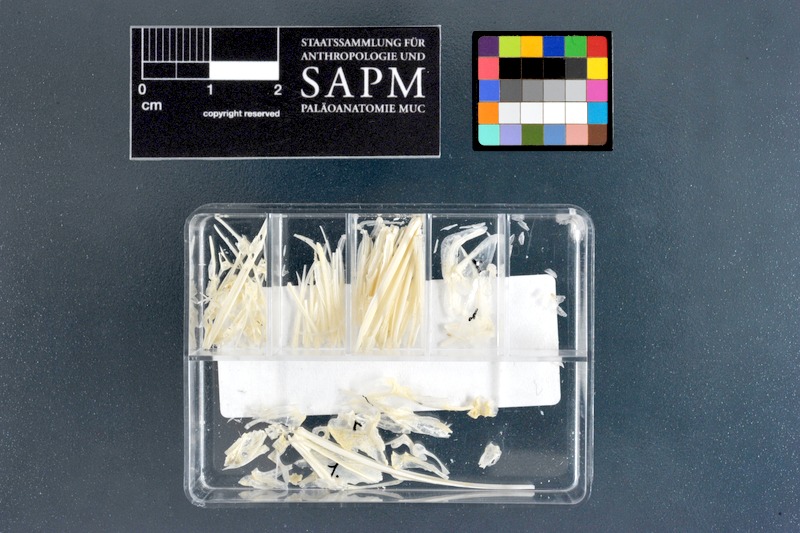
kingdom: Animalia
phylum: Chordata
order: Perciformes
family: Monodactylidae
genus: Monodactylus
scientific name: Monodactylus sebae
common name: African moony
